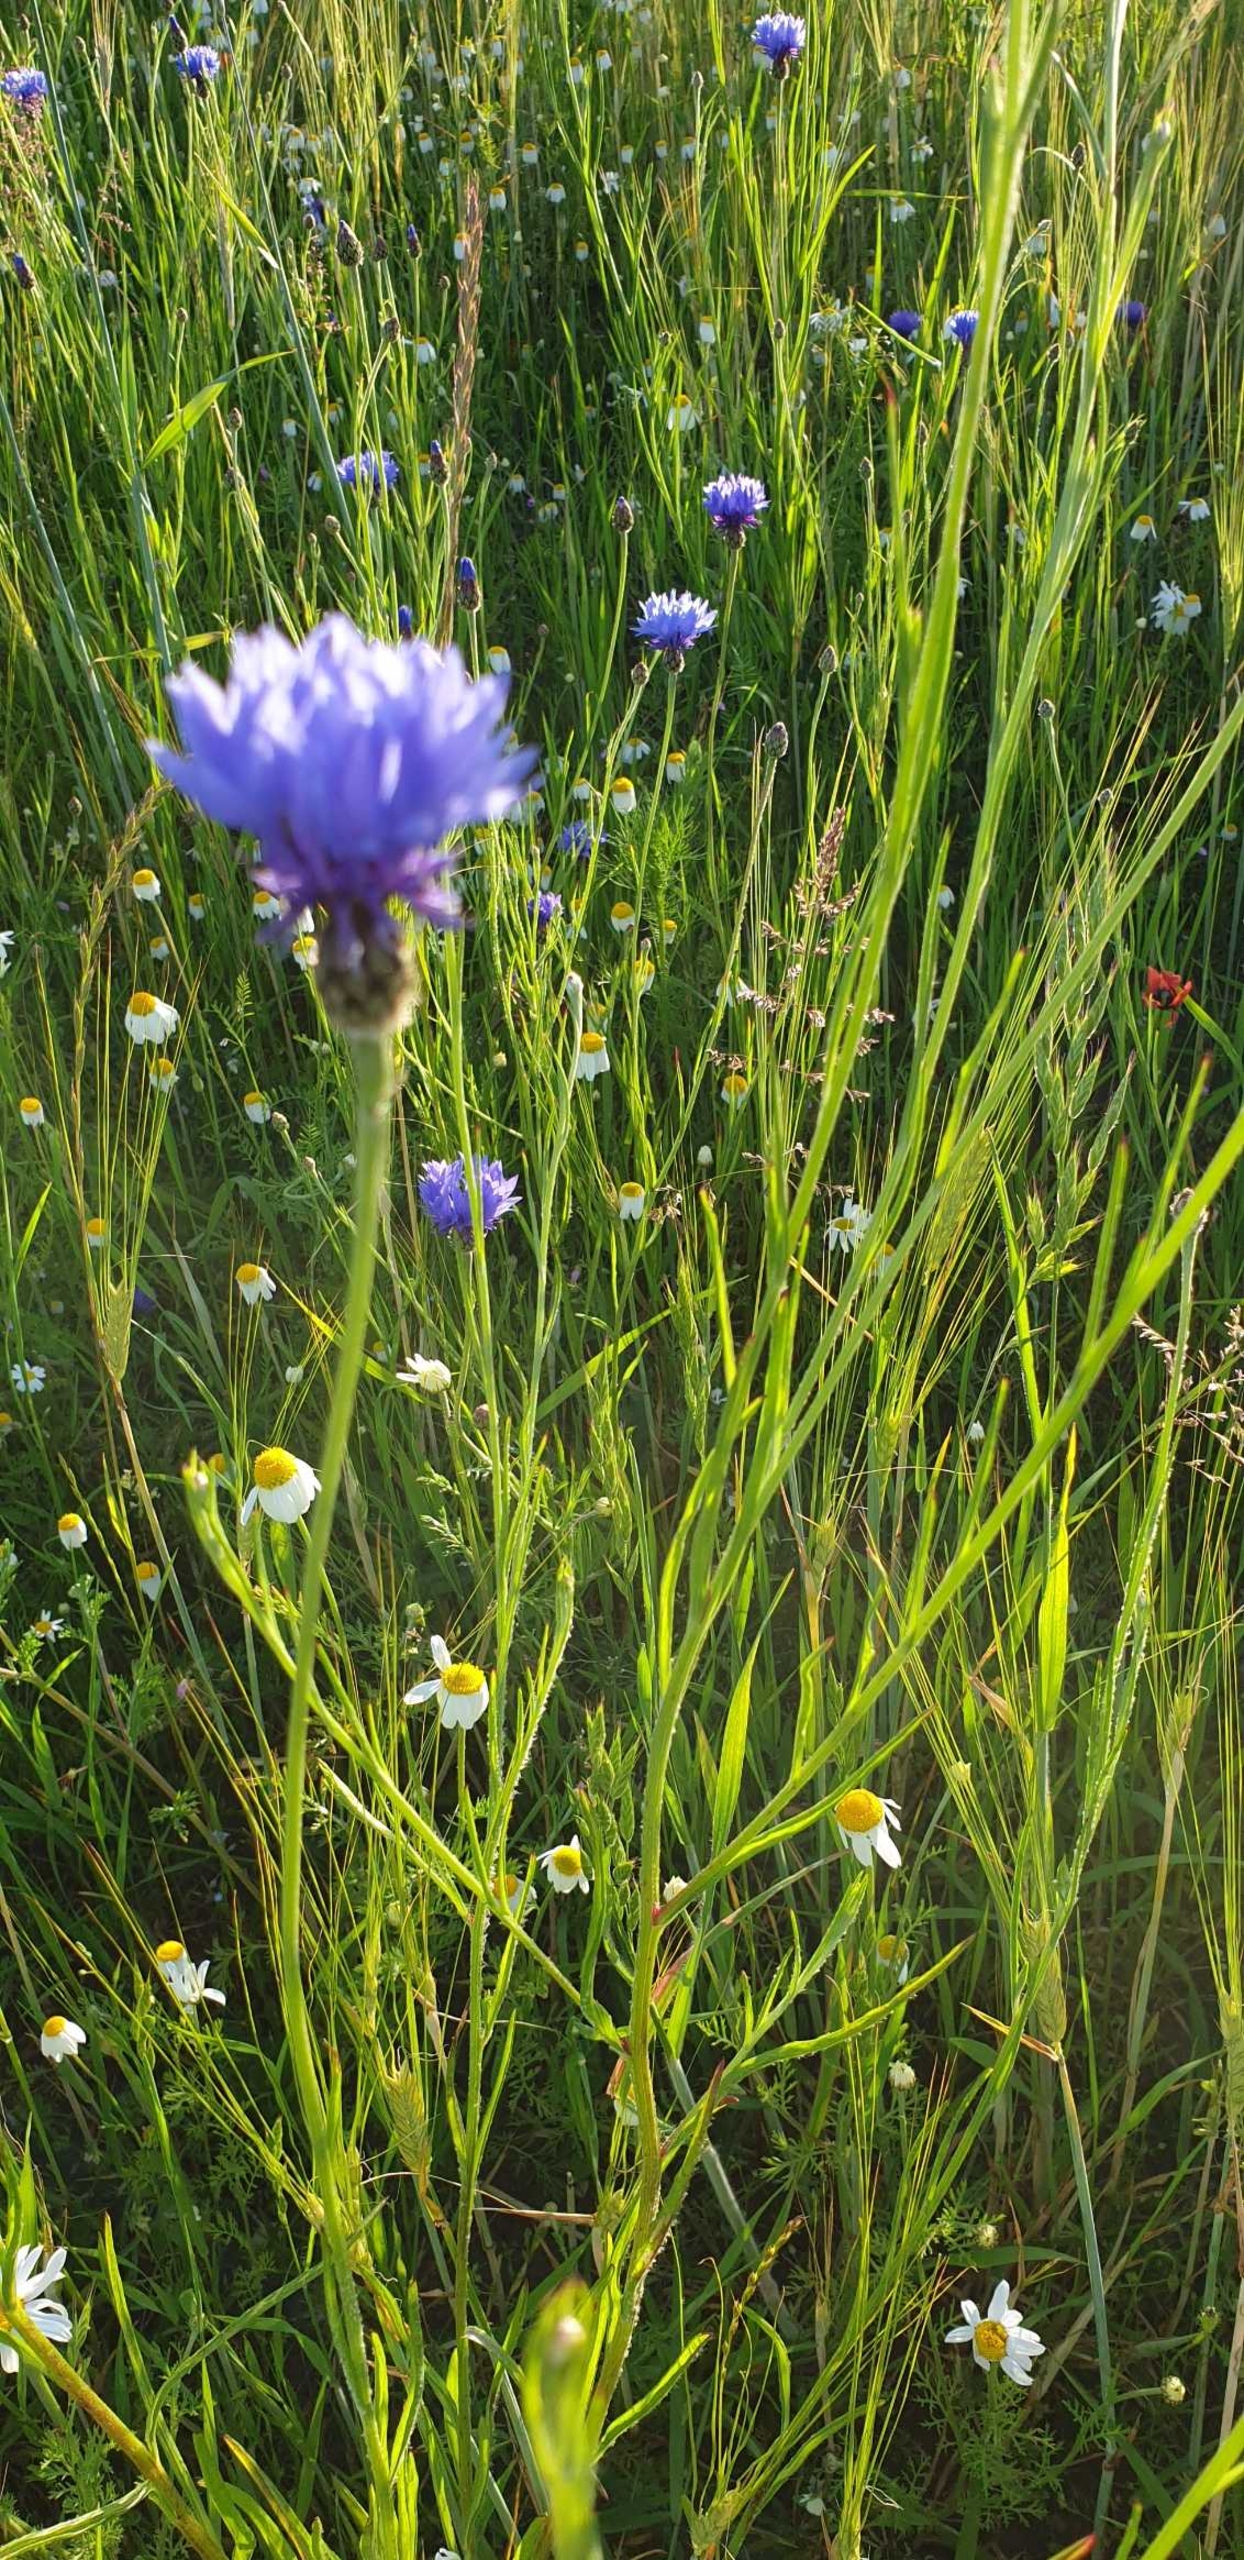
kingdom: Plantae
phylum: Tracheophyta
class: Magnoliopsida
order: Asterales
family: Asteraceae
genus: Centaurea
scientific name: Centaurea cyanus
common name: Kornblomst
